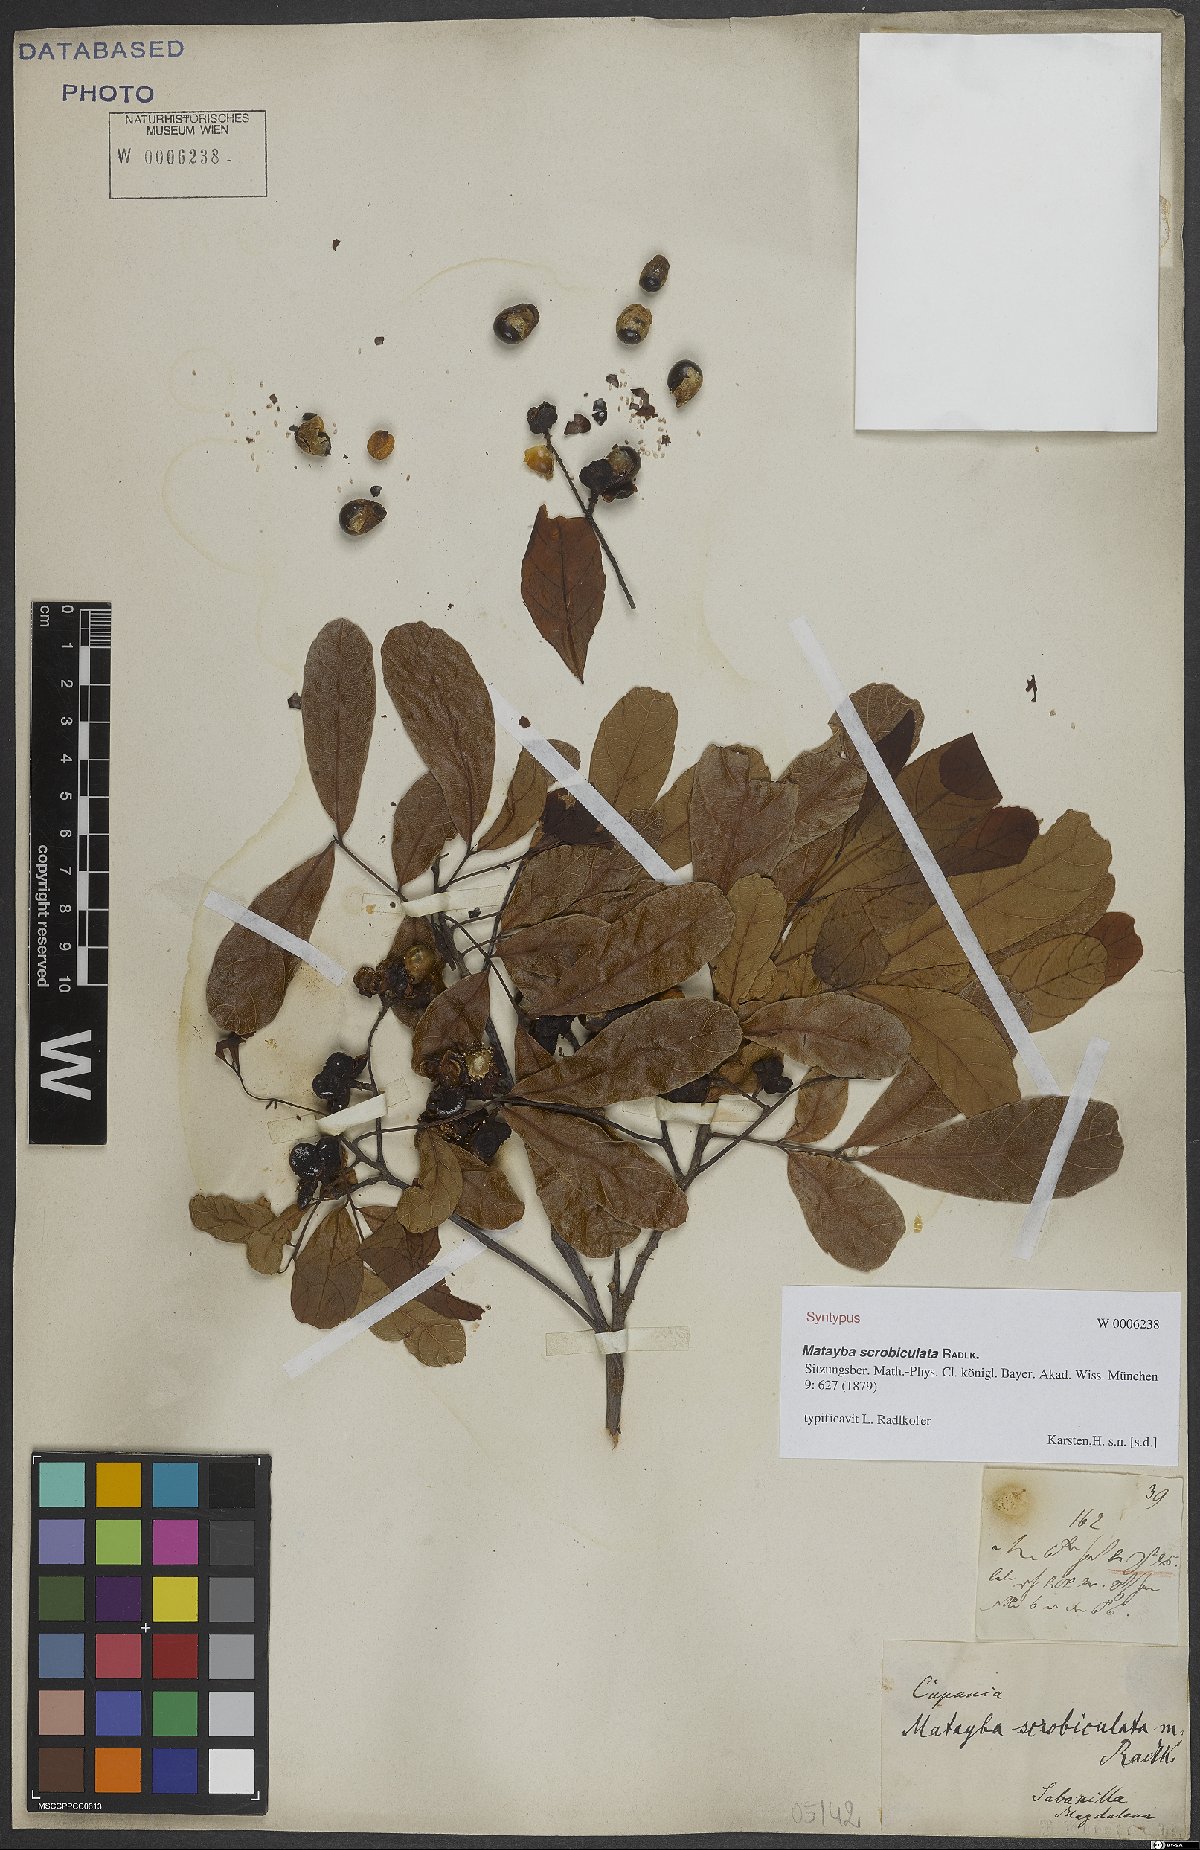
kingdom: Plantae
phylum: Tracheophyta
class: Magnoliopsida
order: Sapindales
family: Sapindaceae
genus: Matayba
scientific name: Matayba scrobiculata
